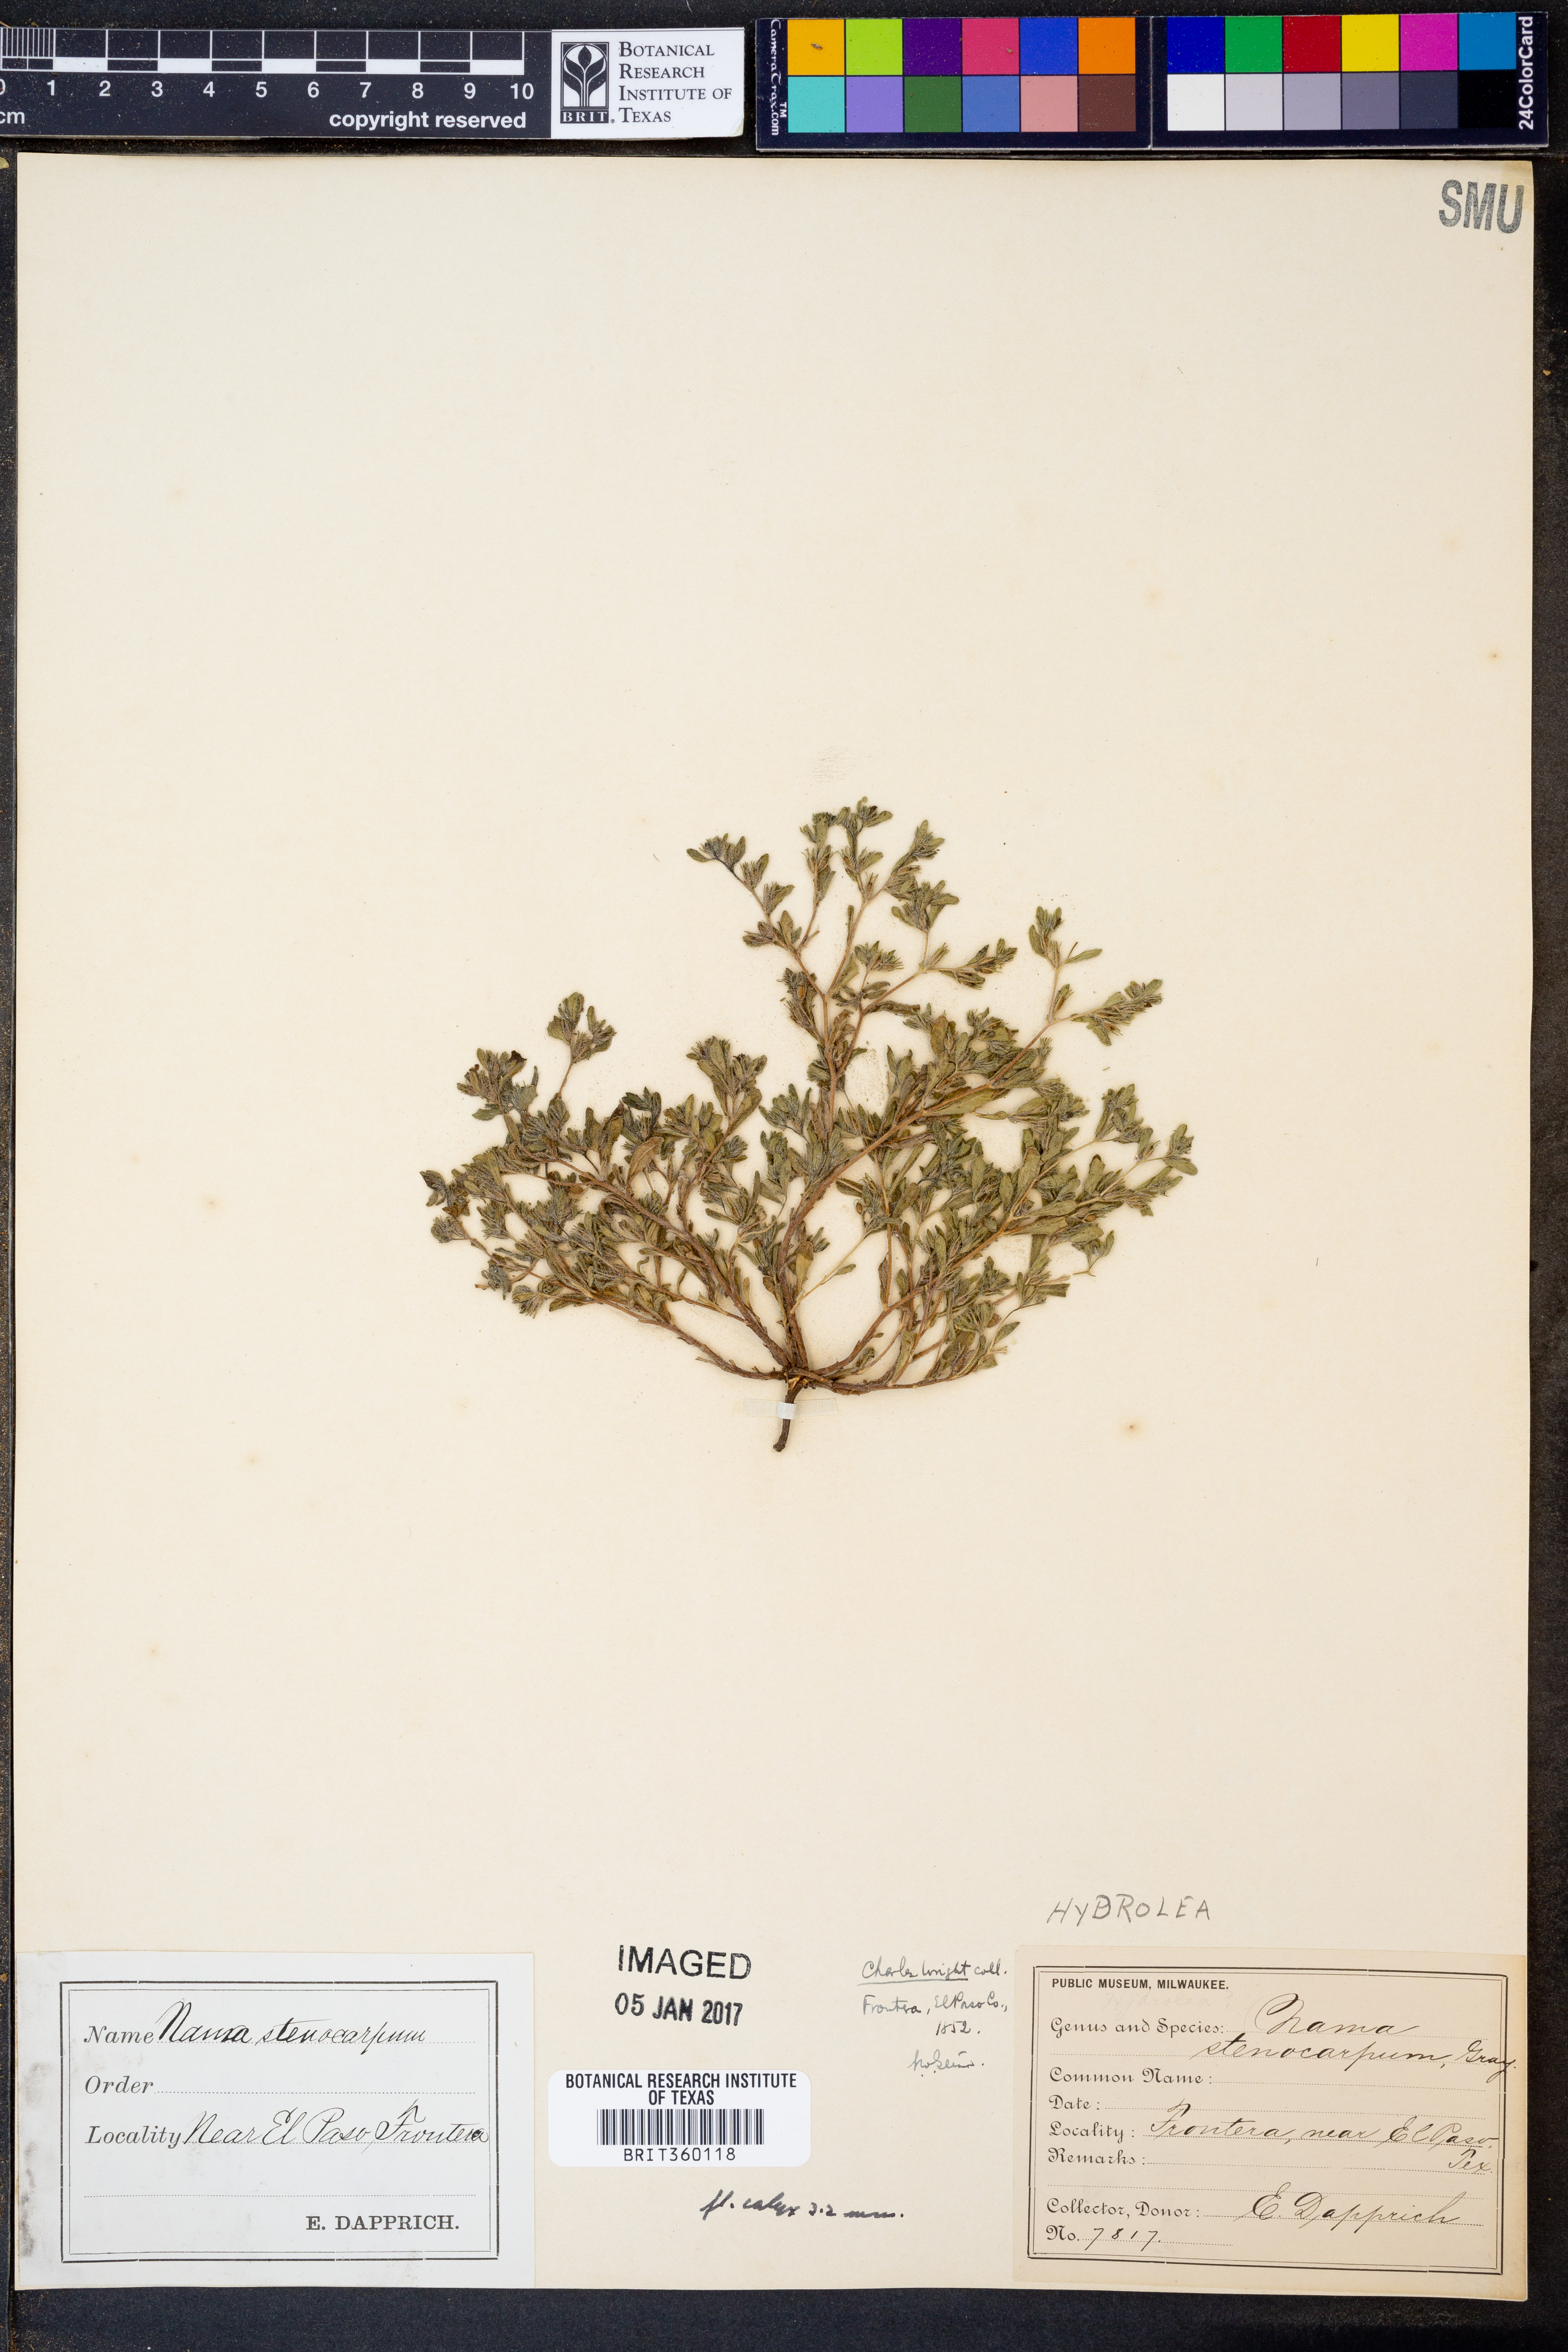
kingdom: Plantae
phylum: Tracheophyta
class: Magnoliopsida
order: Boraginales
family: Namaceae
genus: Nama
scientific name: Nama stenocarpa
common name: Mud fiddleleaf
